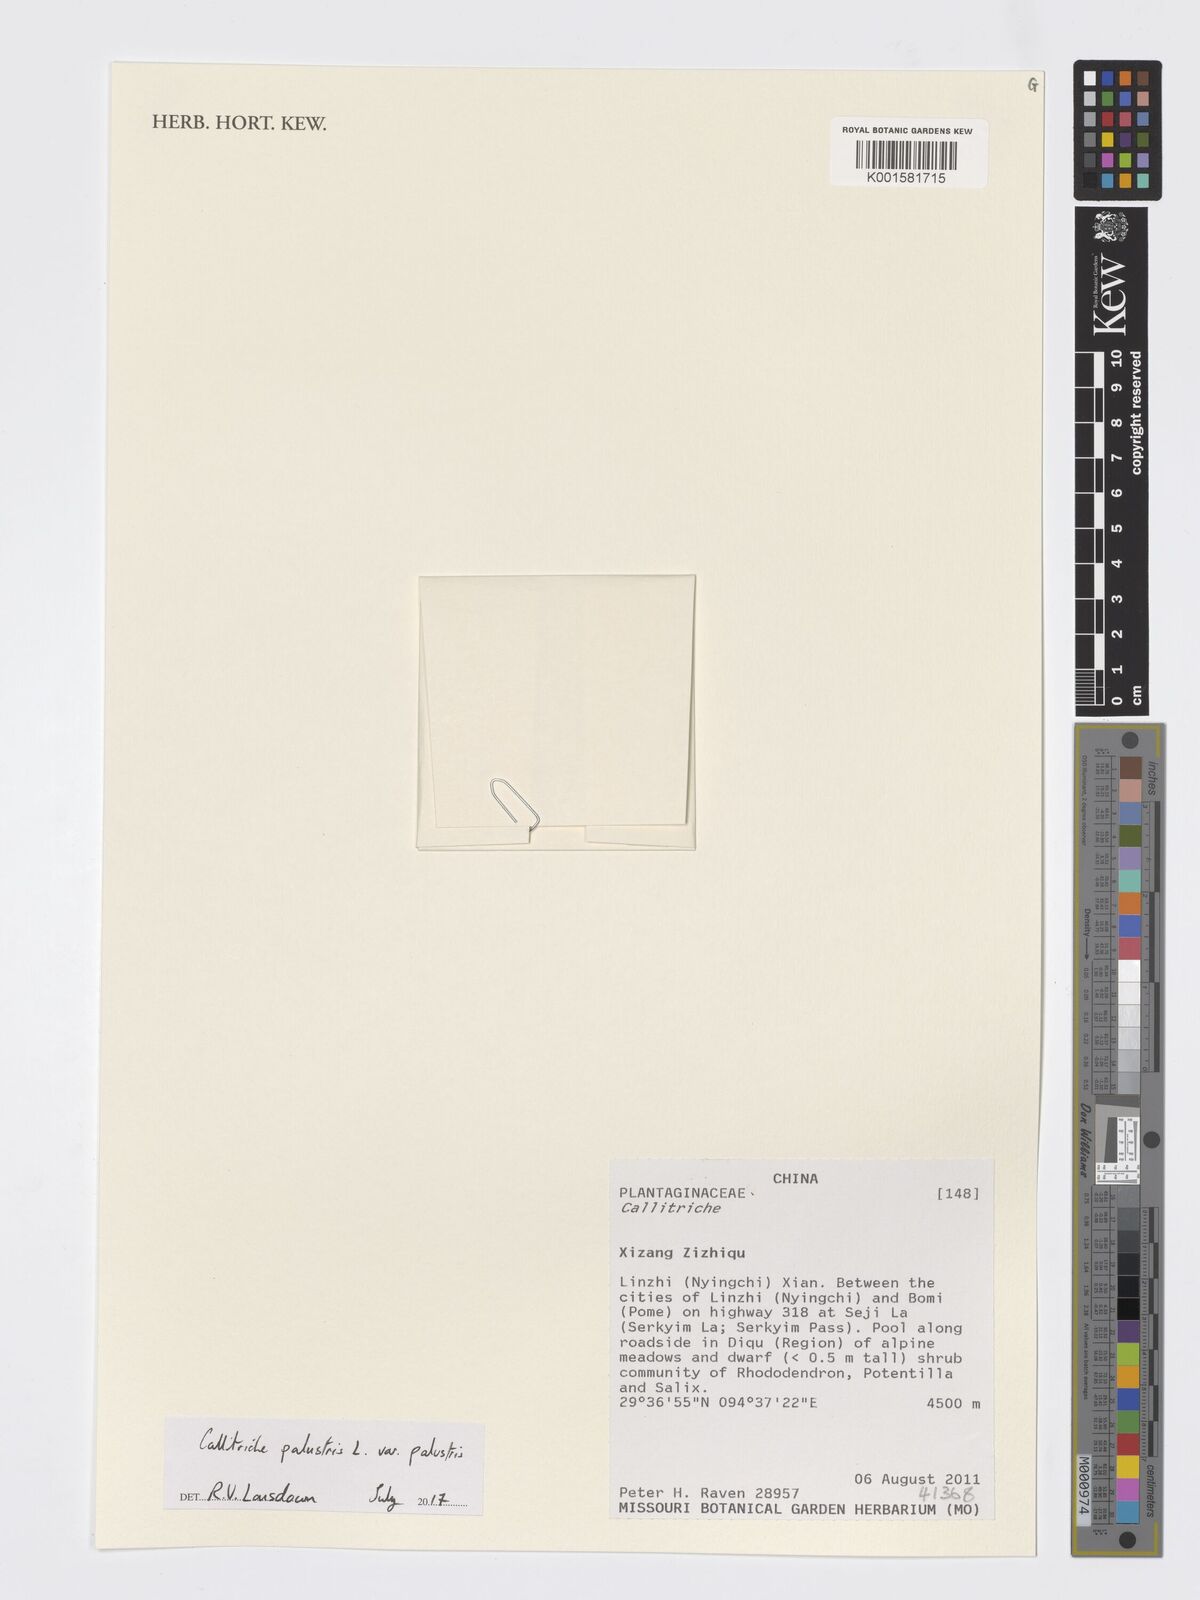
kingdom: Plantae
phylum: Tracheophyta
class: Magnoliopsida
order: Lamiales
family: Plantaginaceae
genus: Callitriche
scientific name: Callitriche palustris
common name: Spring water-starwort
